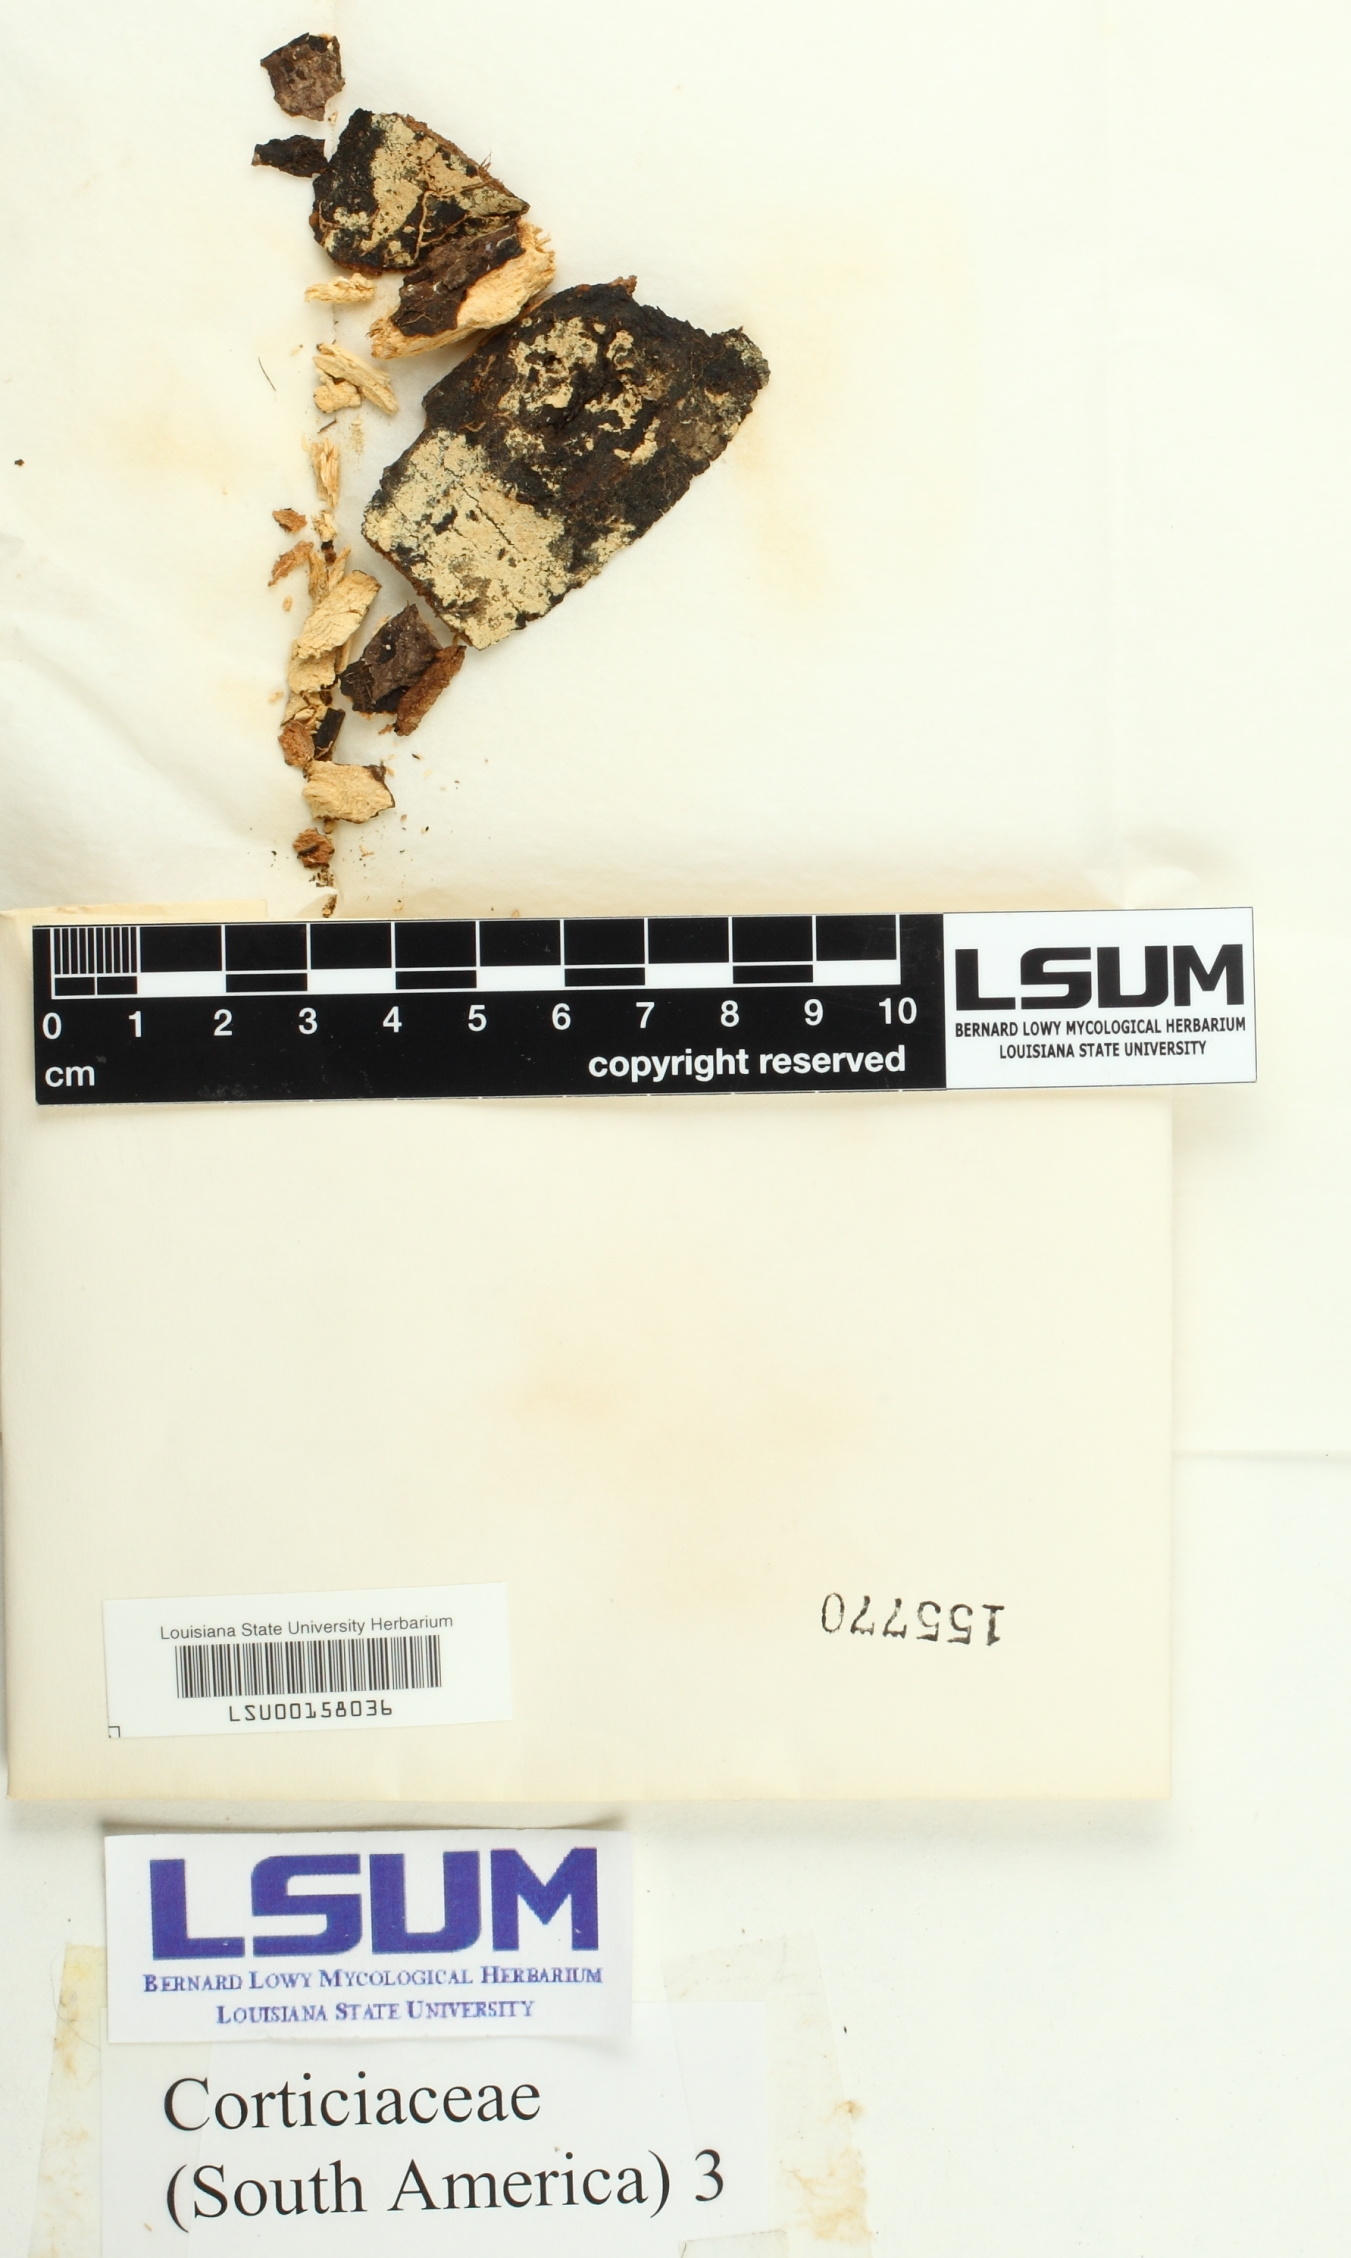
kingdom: Fungi
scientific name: Fungi
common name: Fungi
